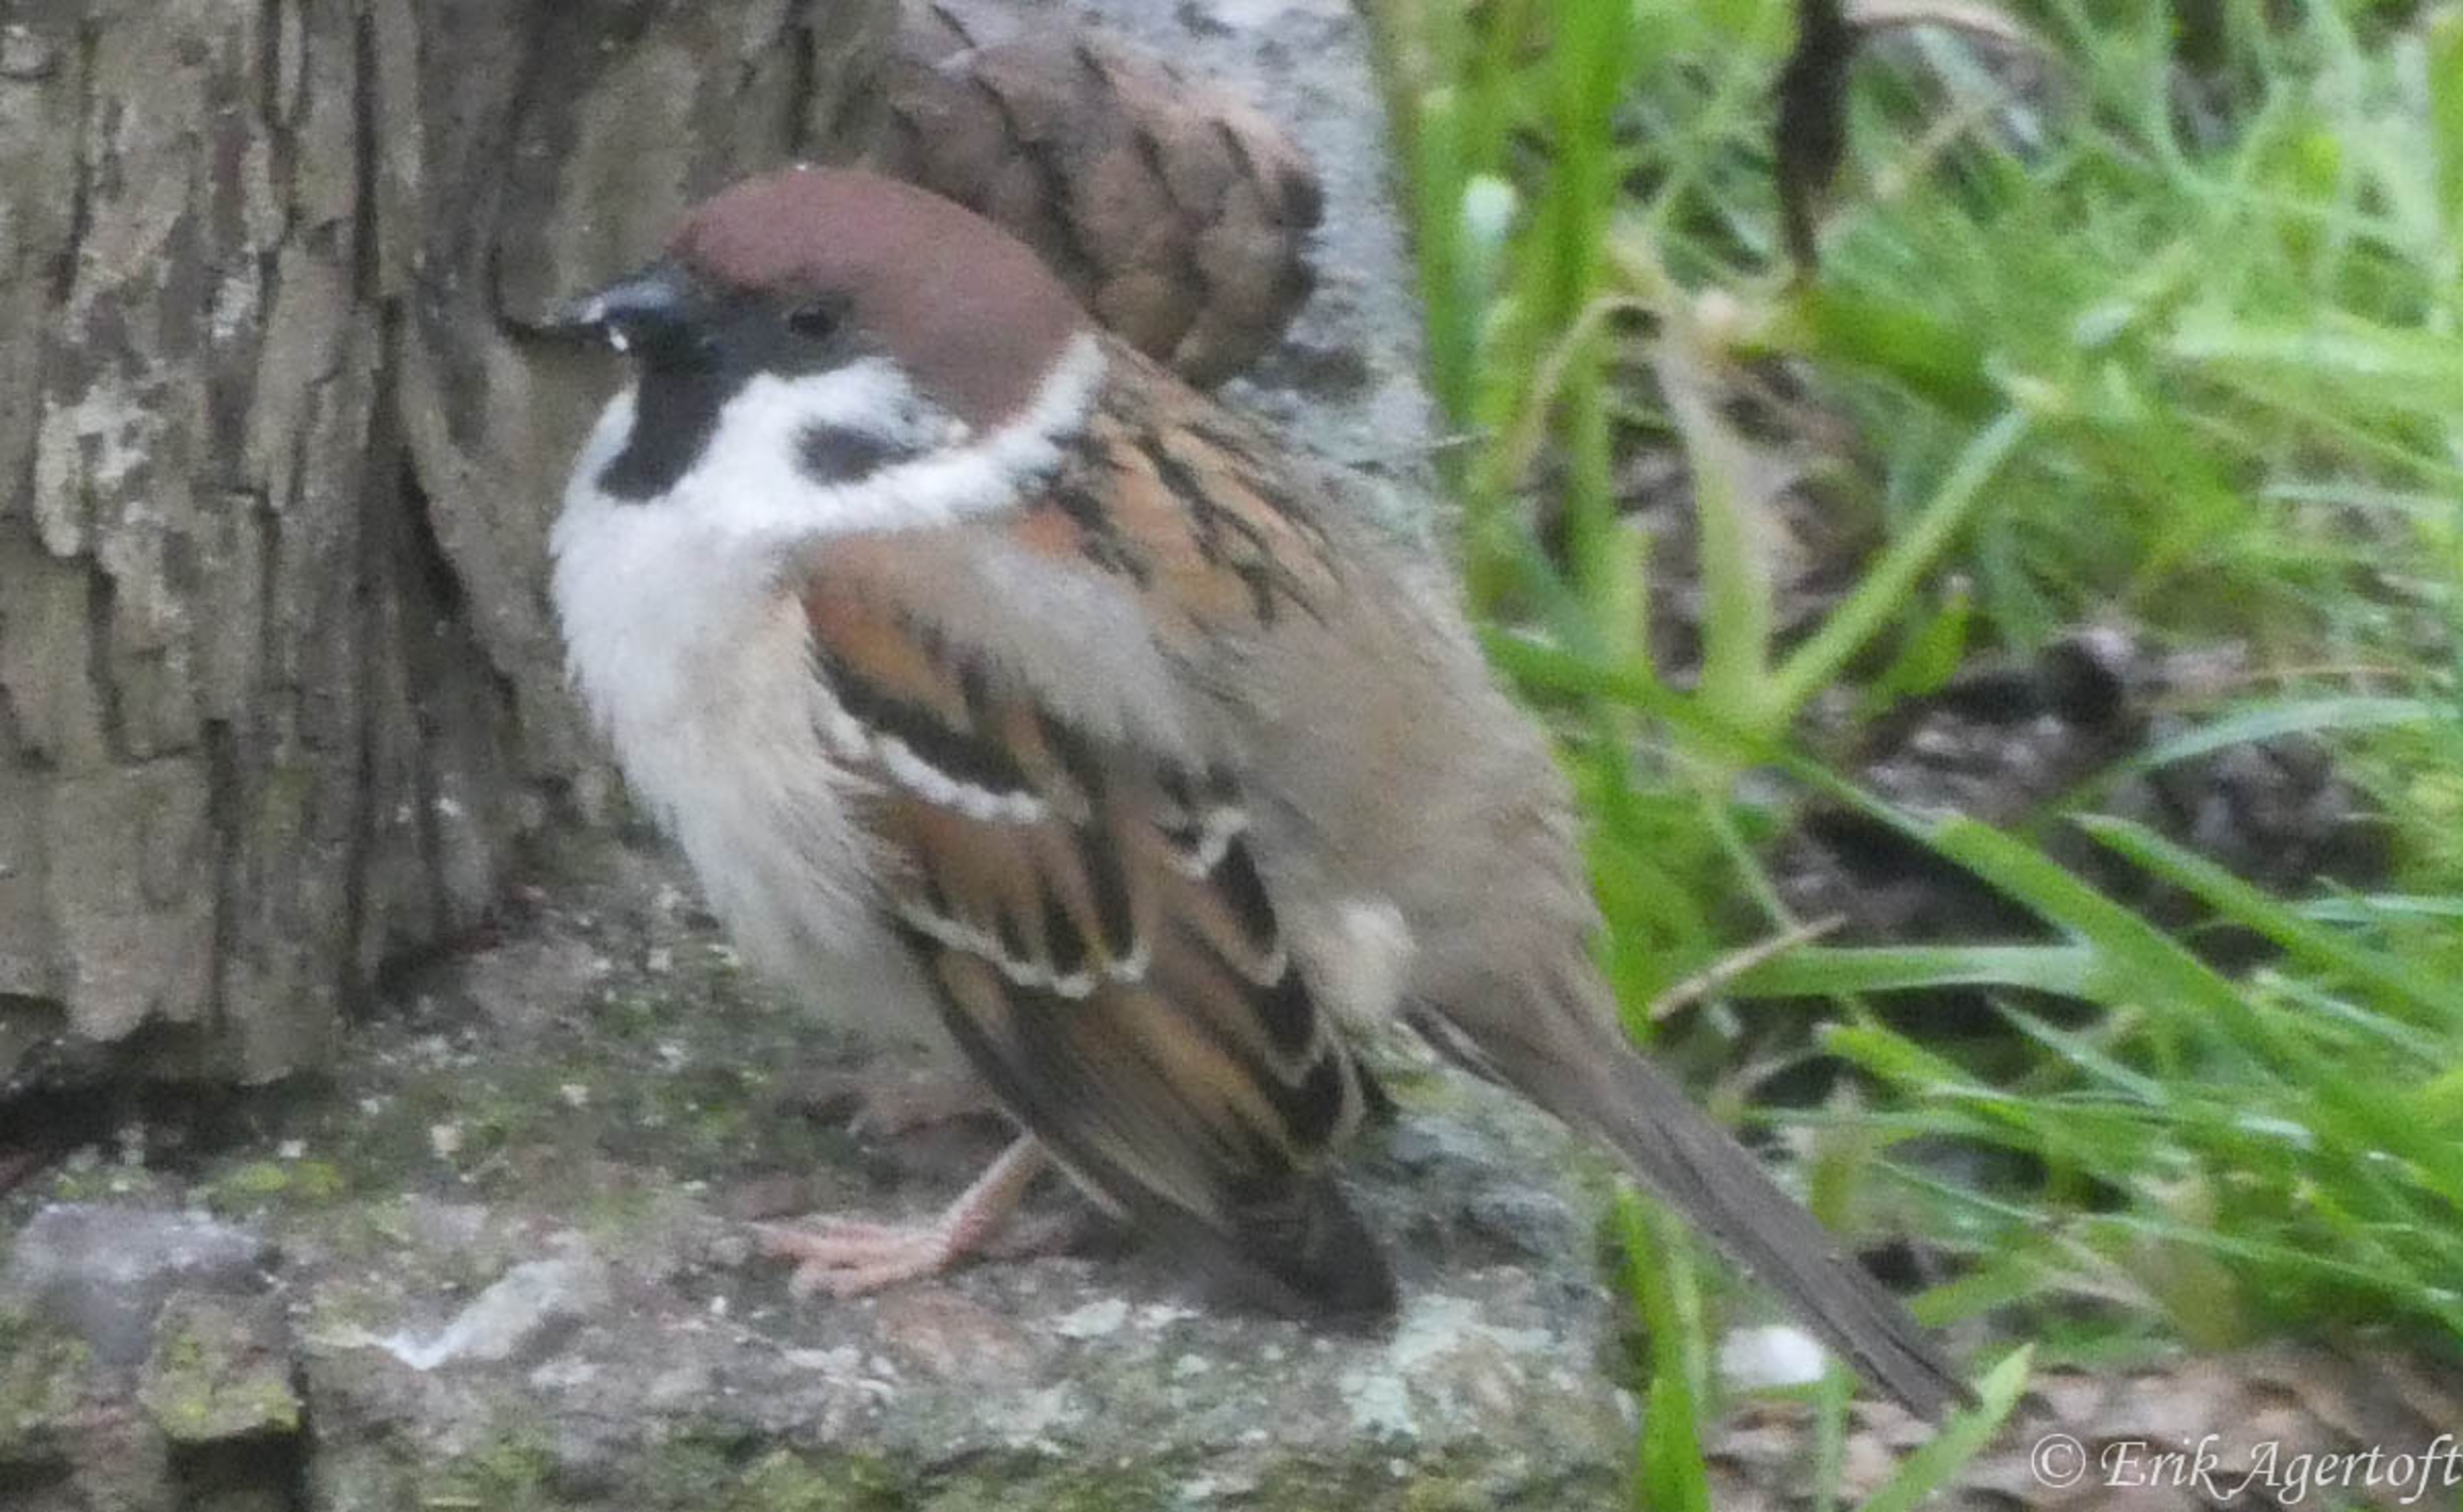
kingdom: Animalia
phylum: Chordata
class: Aves
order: Passeriformes
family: Passeridae
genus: Passer
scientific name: Passer montanus
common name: Skovspurv
